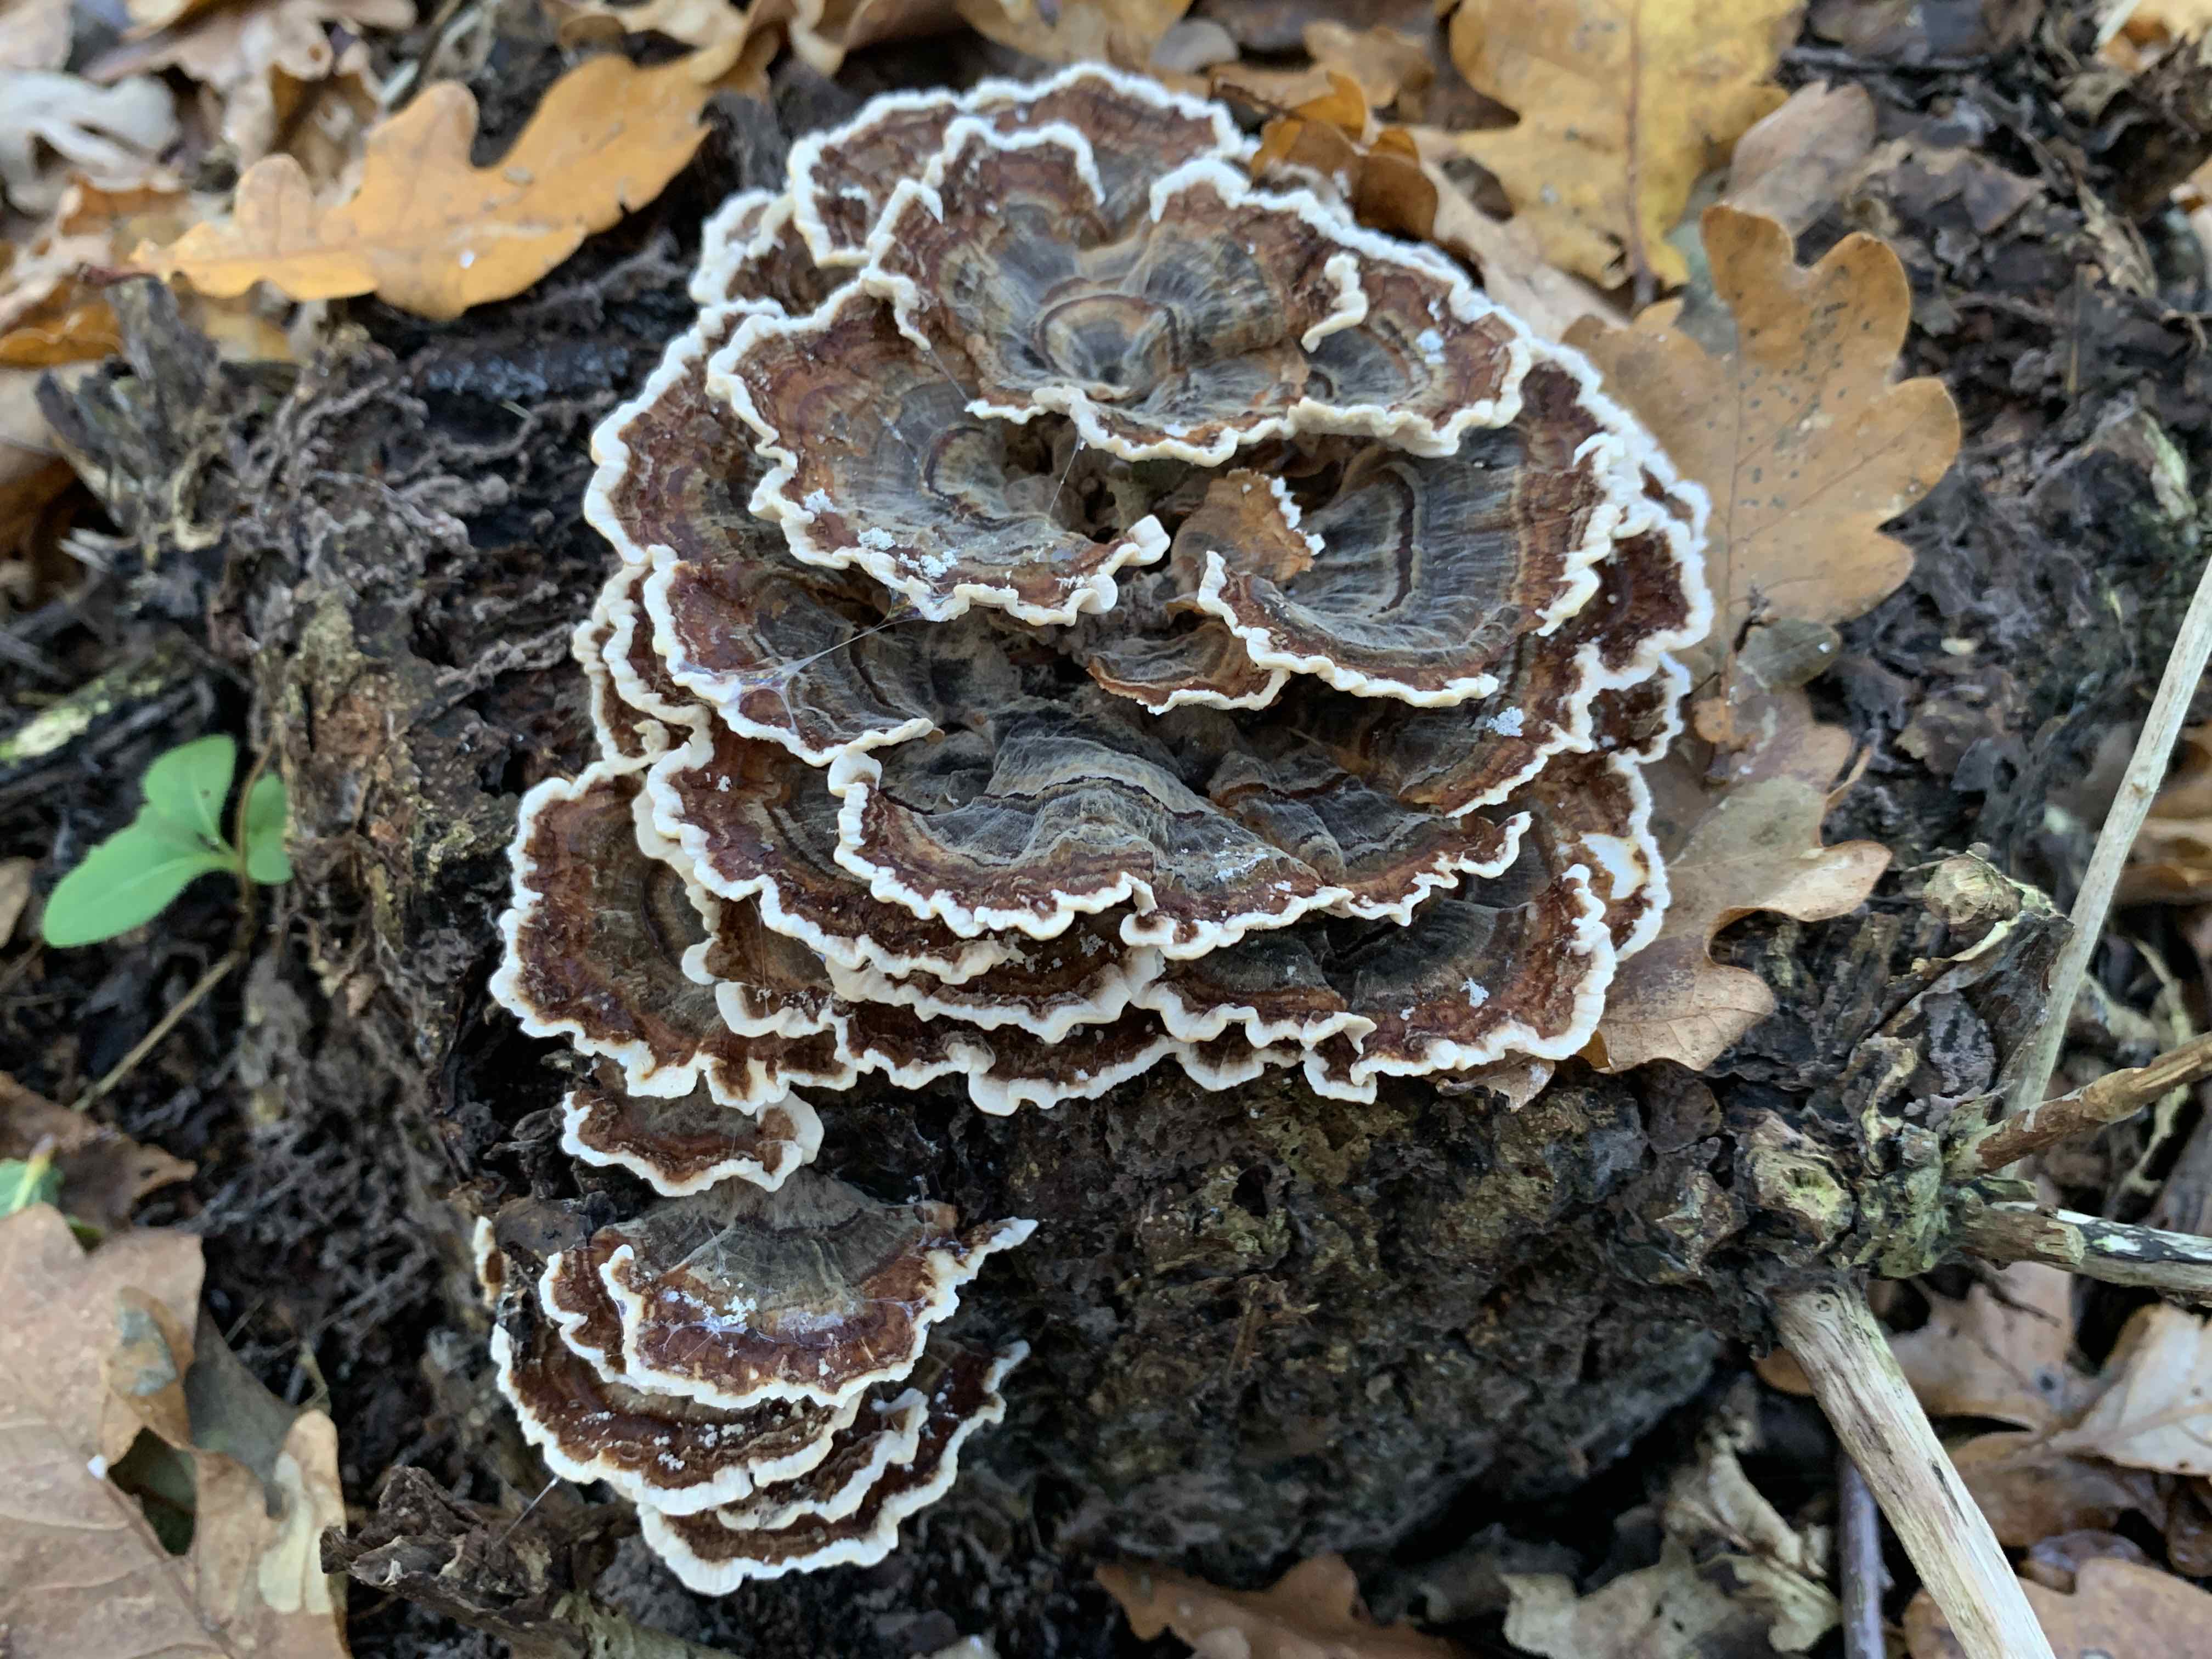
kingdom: Fungi
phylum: Basidiomycota
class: Agaricomycetes
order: Polyporales
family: Polyporaceae
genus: Trametes
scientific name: Trametes versicolor
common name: broget læderporesvamp
